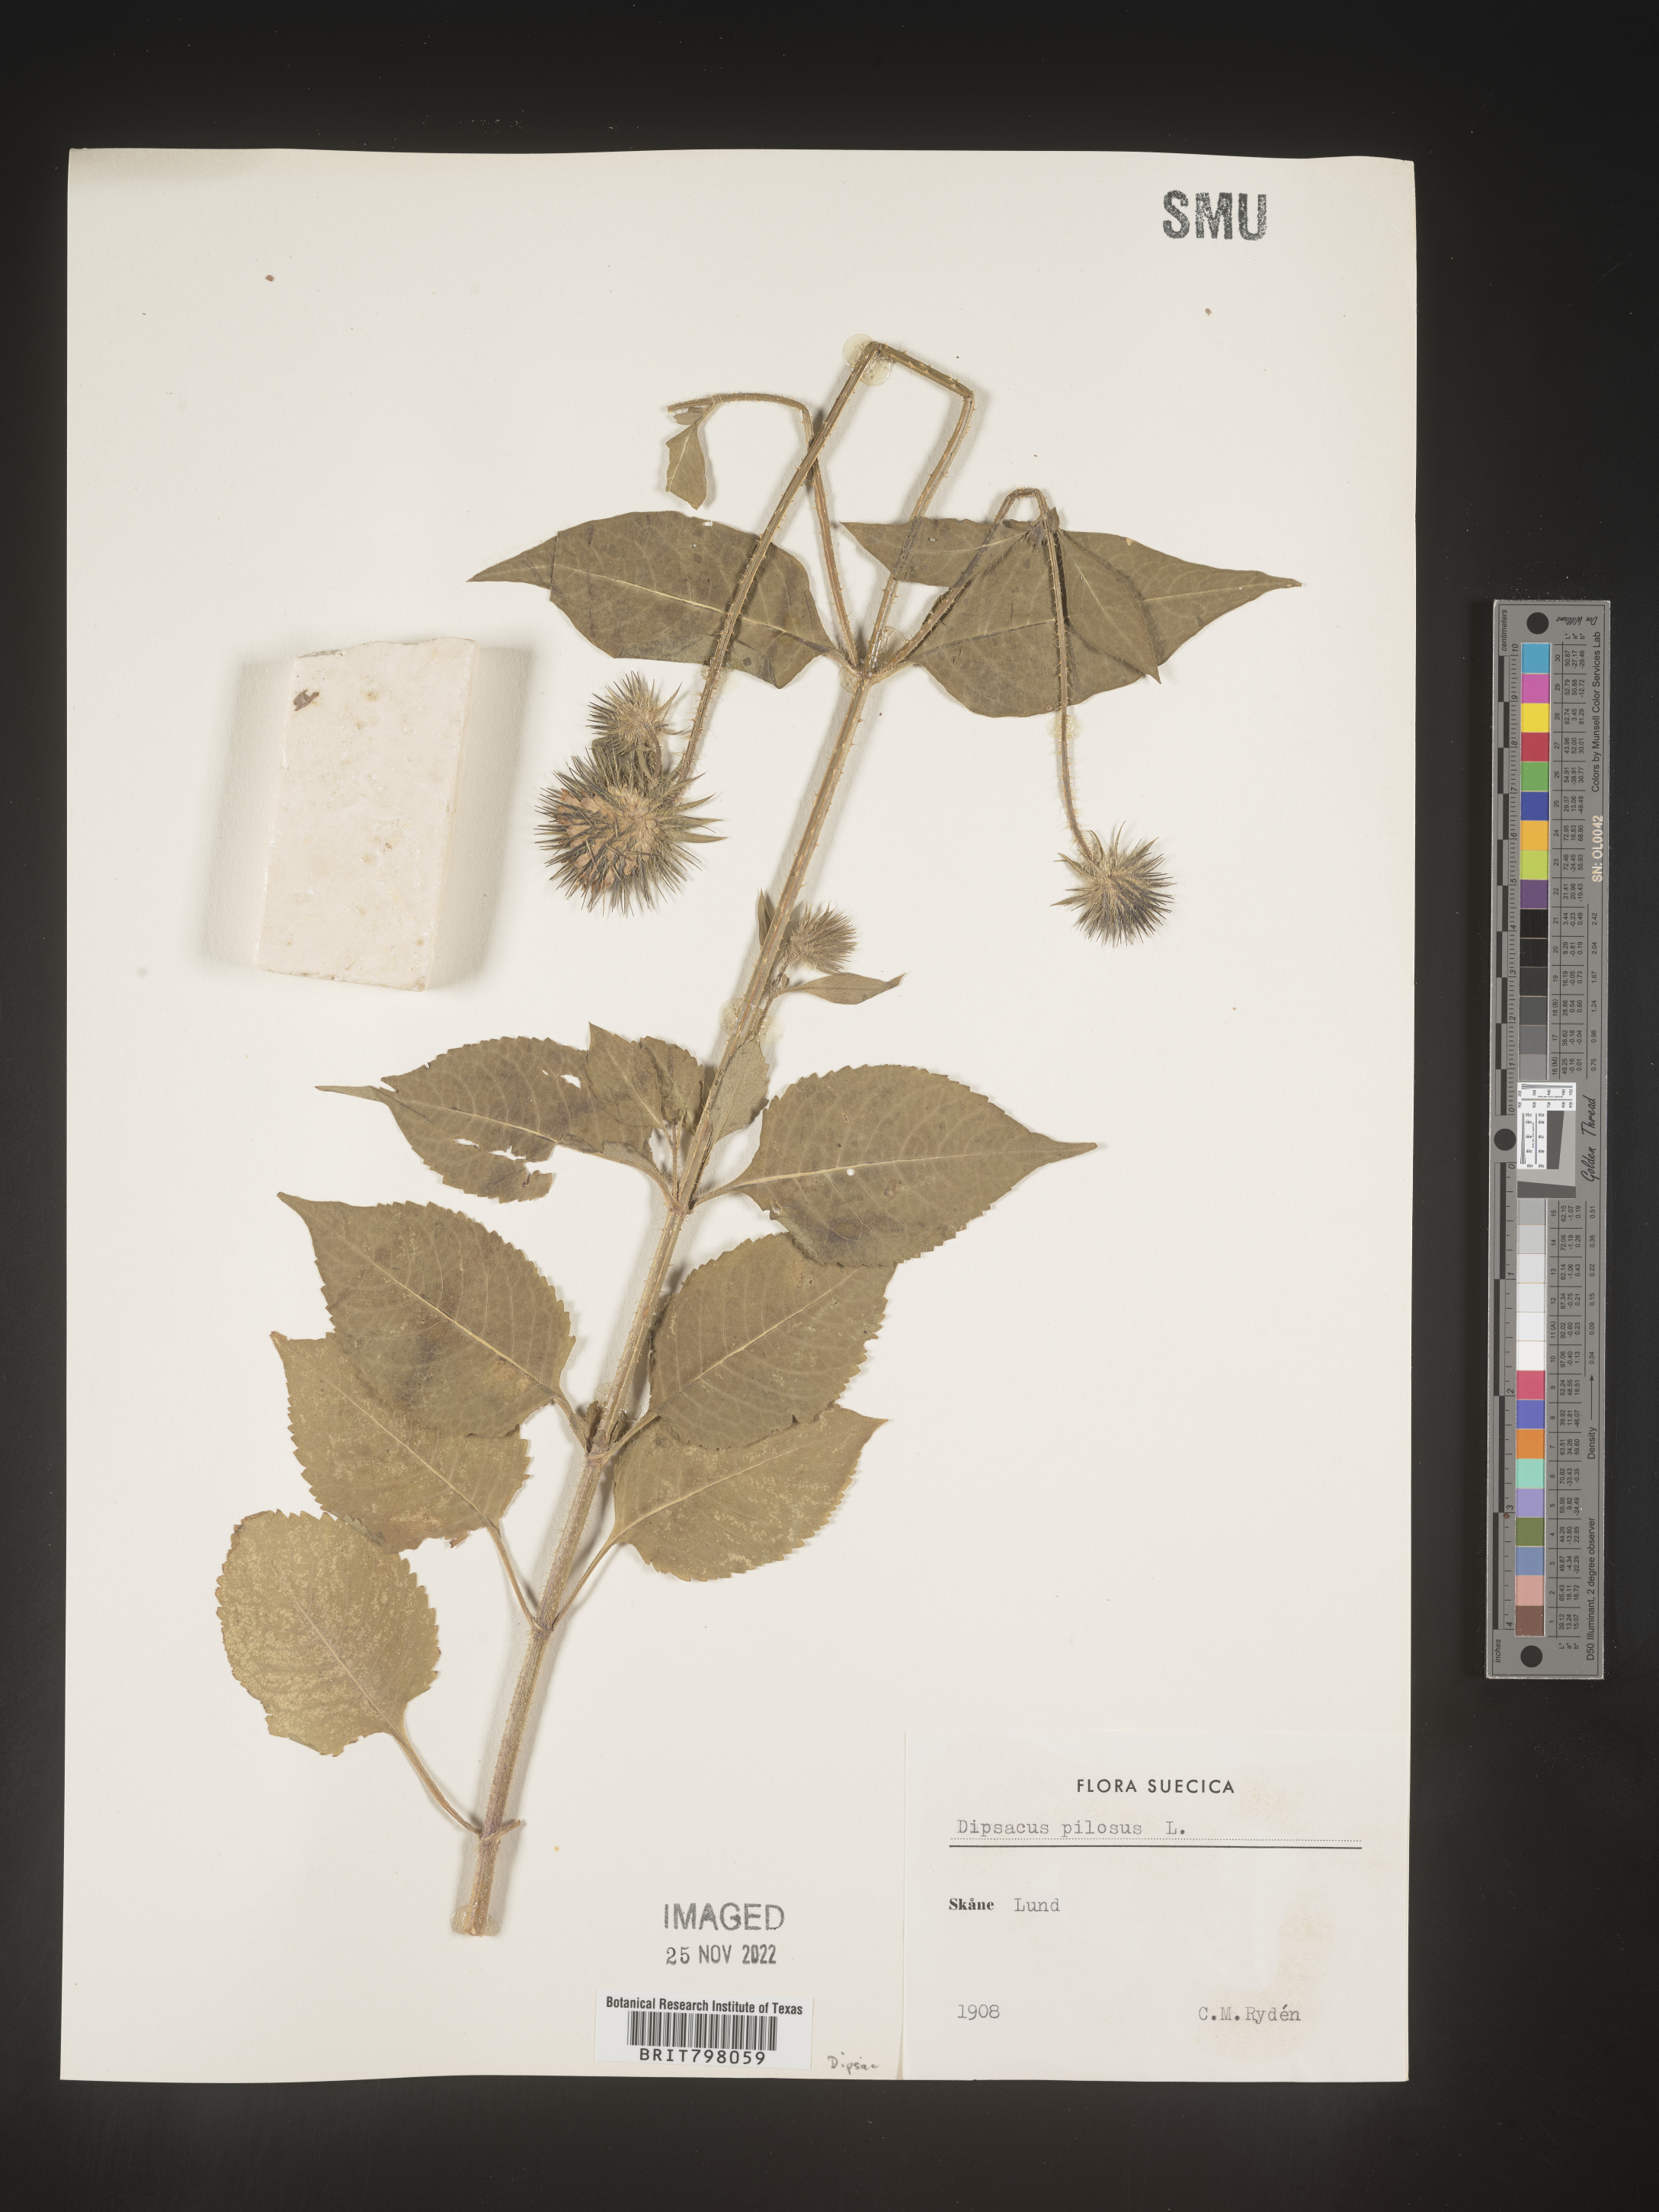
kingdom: Plantae
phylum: Tracheophyta
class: Magnoliopsida
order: Dipsacales
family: Caprifoliaceae
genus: Dipsacus
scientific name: Dipsacus
